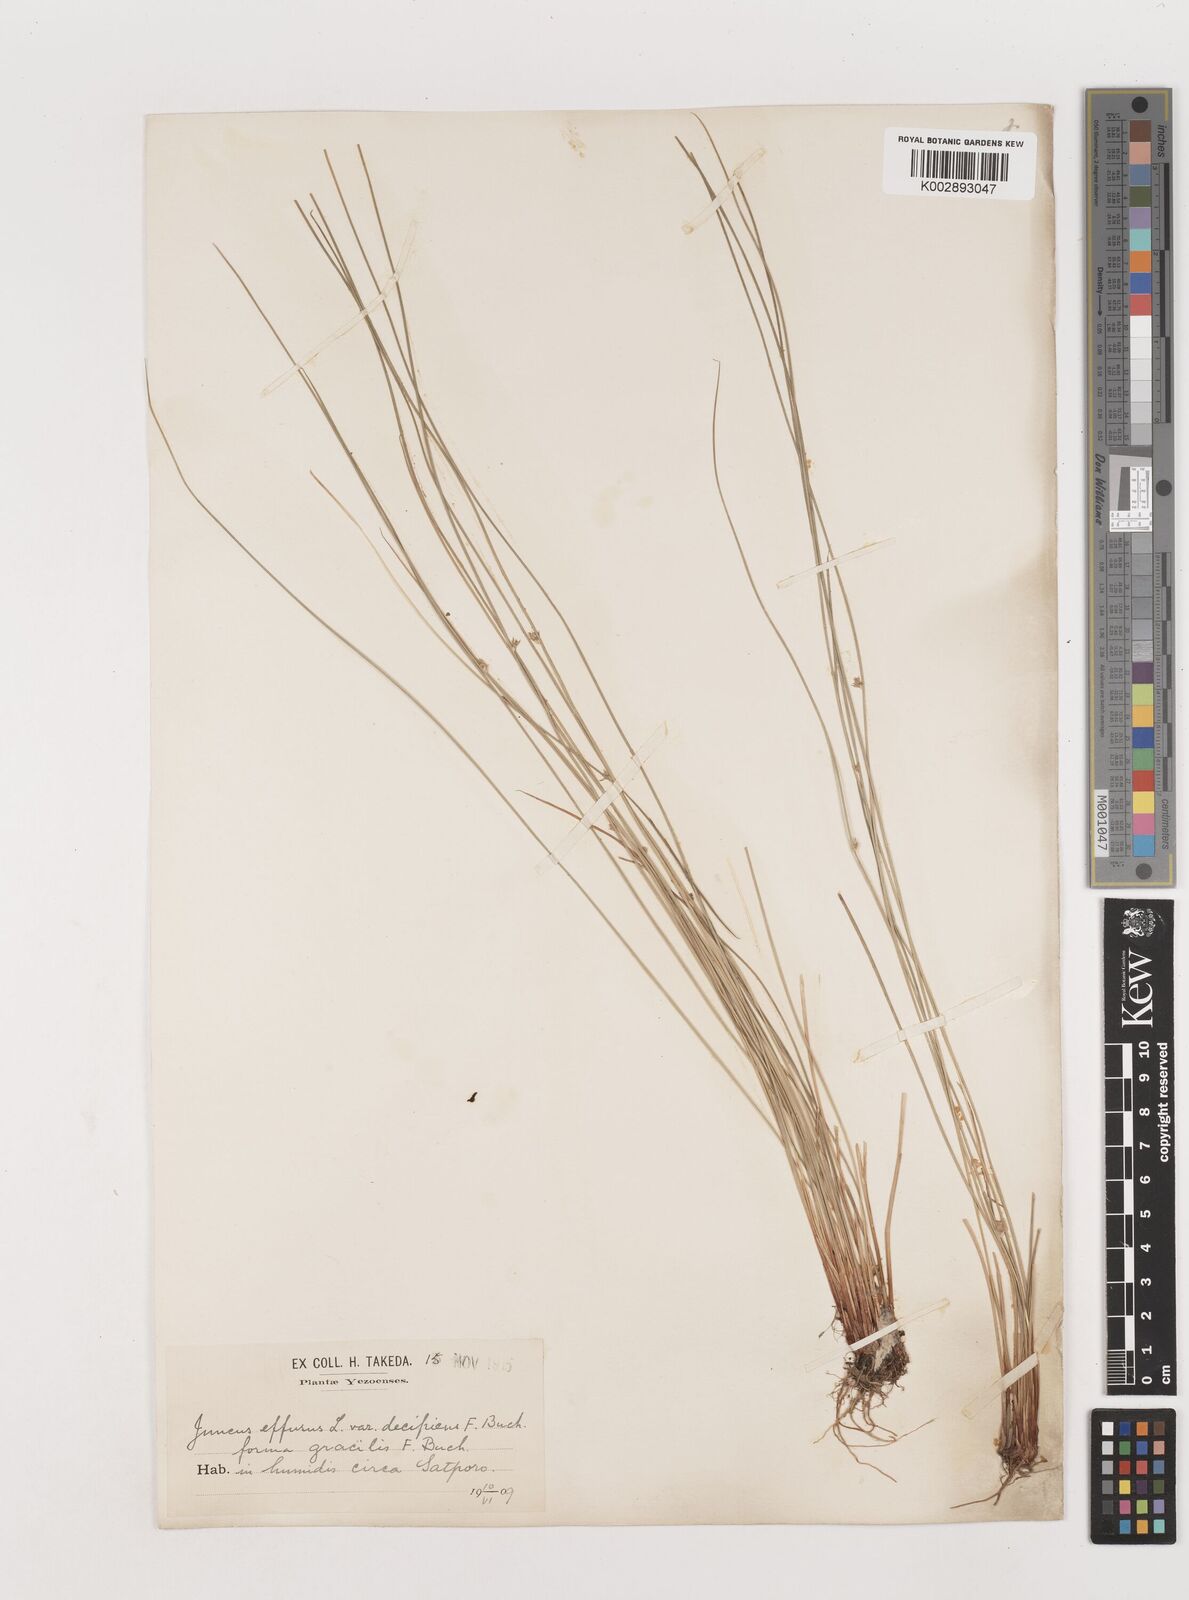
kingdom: Plantae
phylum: Tracheophyta
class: Liliopsida
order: Poales
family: Juncaceae
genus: Juncus
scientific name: Juncus decipiens
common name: Lamp rush
